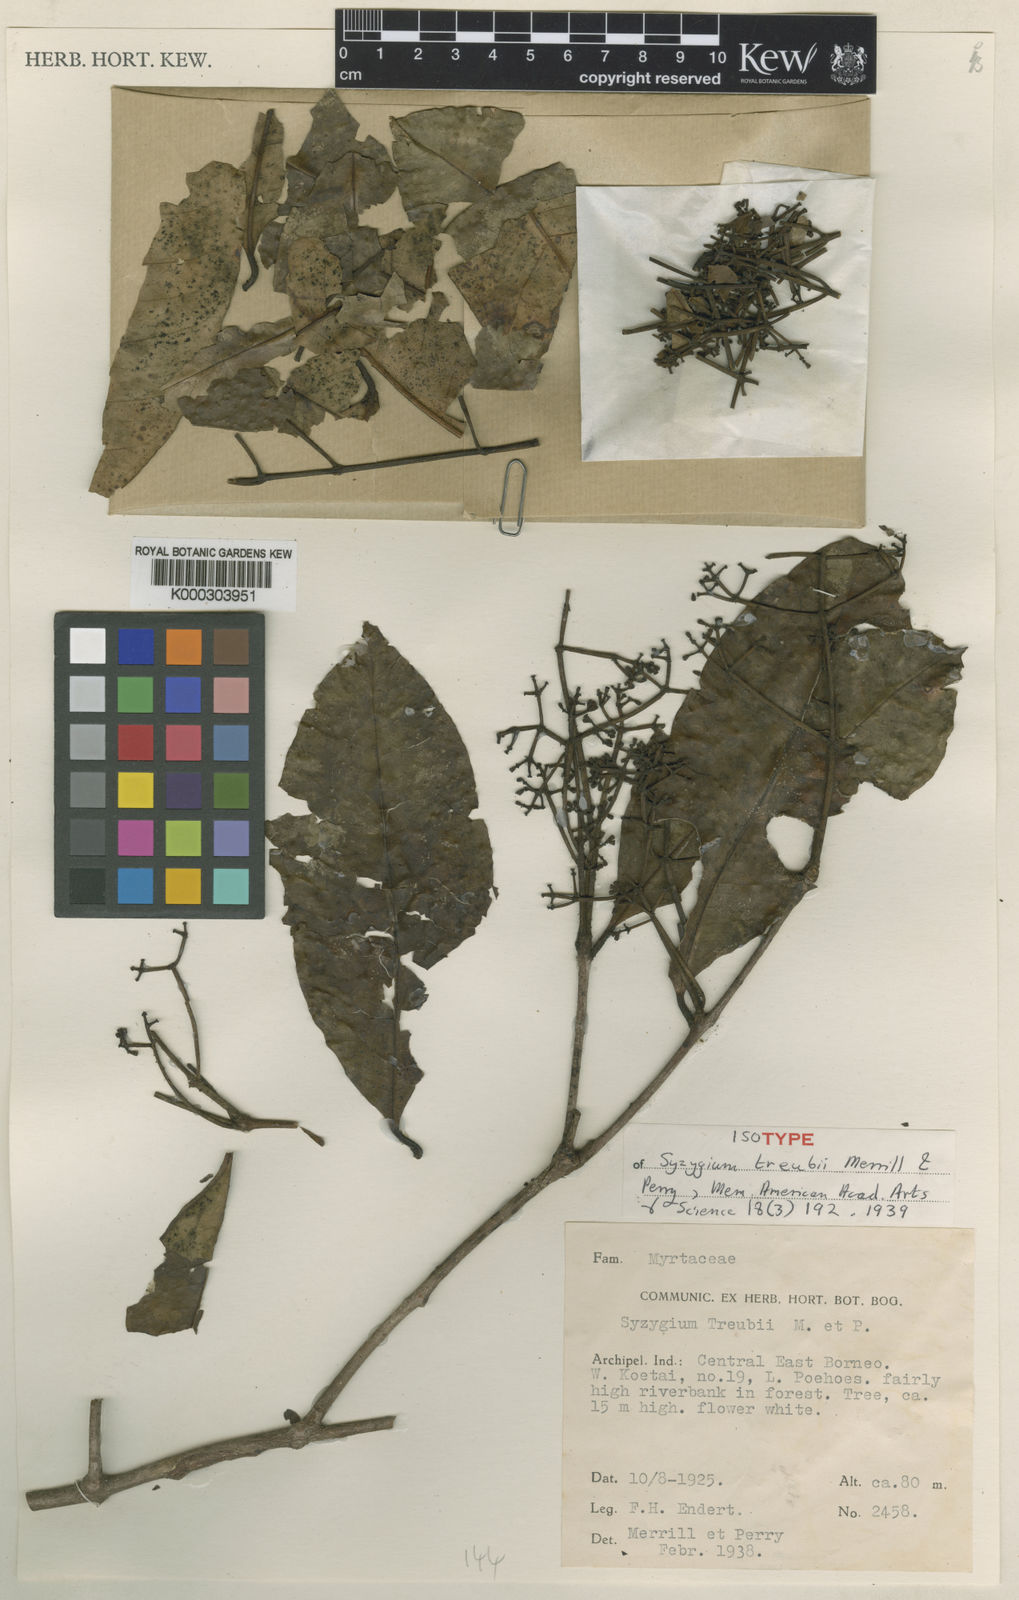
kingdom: Plantae
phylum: Tracheophyta
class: Magnoliopsida
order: Myrtales
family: Myrtaceae
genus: Syzygium
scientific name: Syzygium treubii
